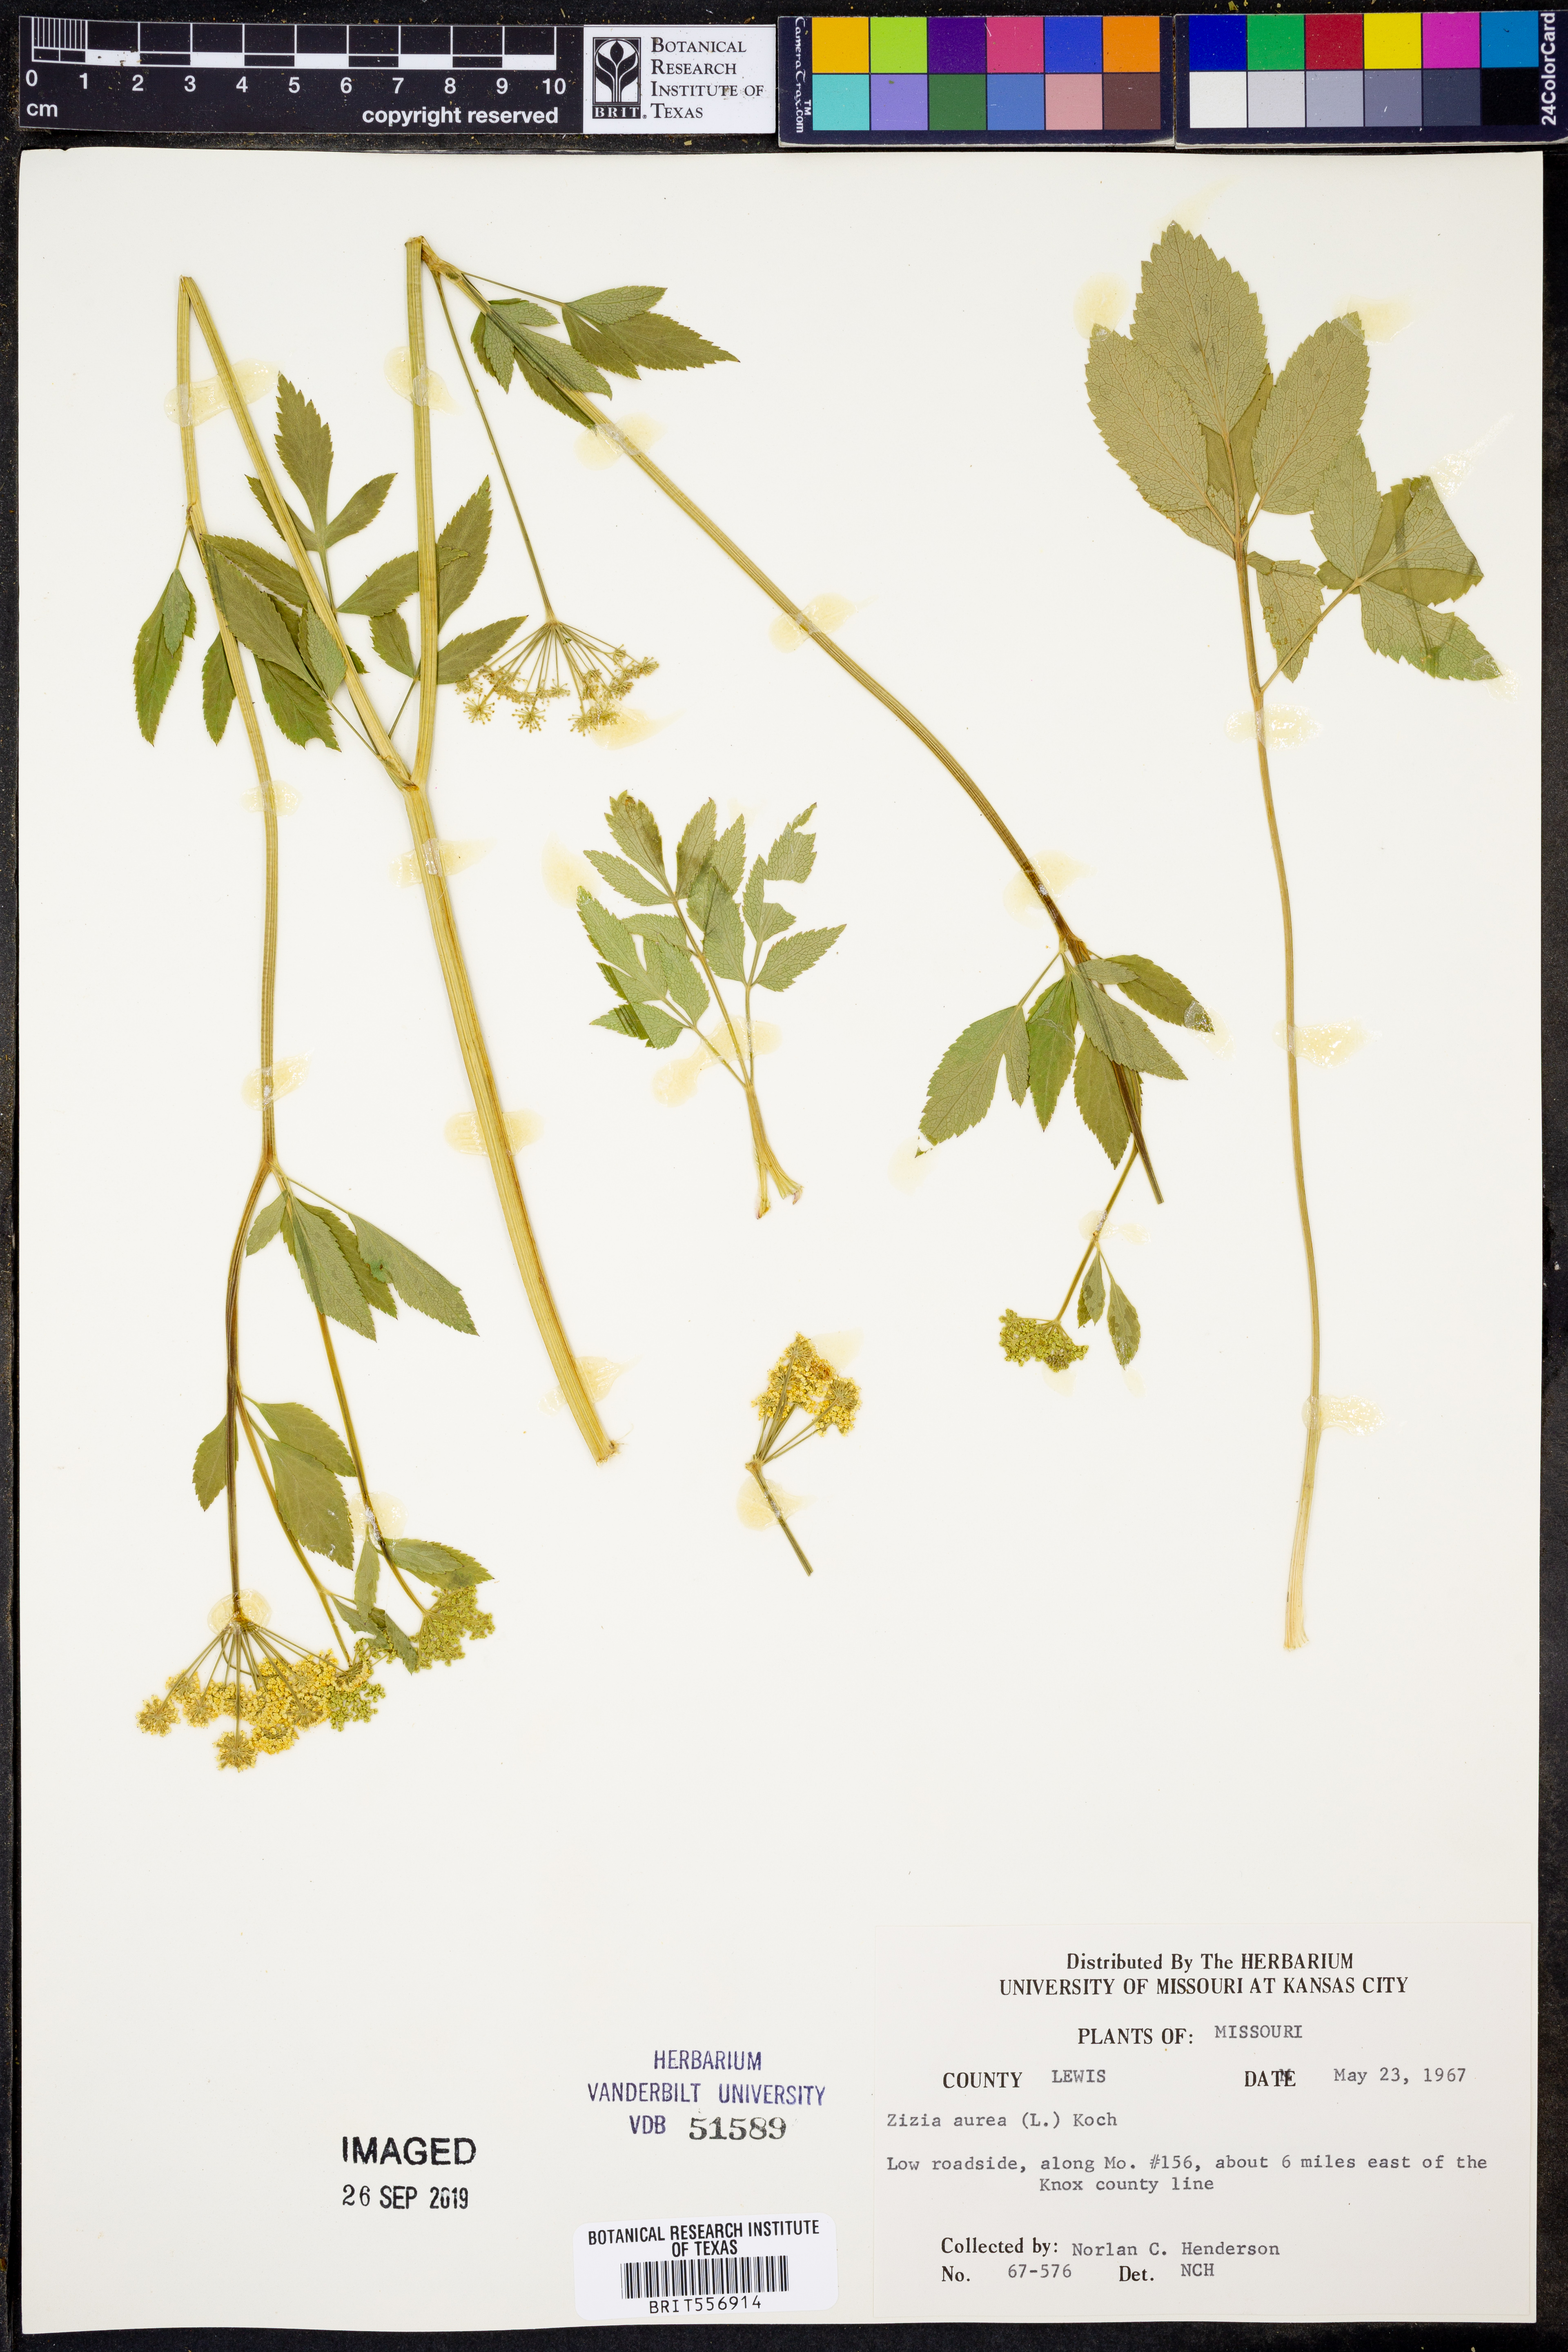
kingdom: Plantae
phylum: Tracheophyta
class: Magnoliopsida
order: Apiales
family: Apiaceae
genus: Zizia
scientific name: Zizia aurea
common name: Golden alexanders
